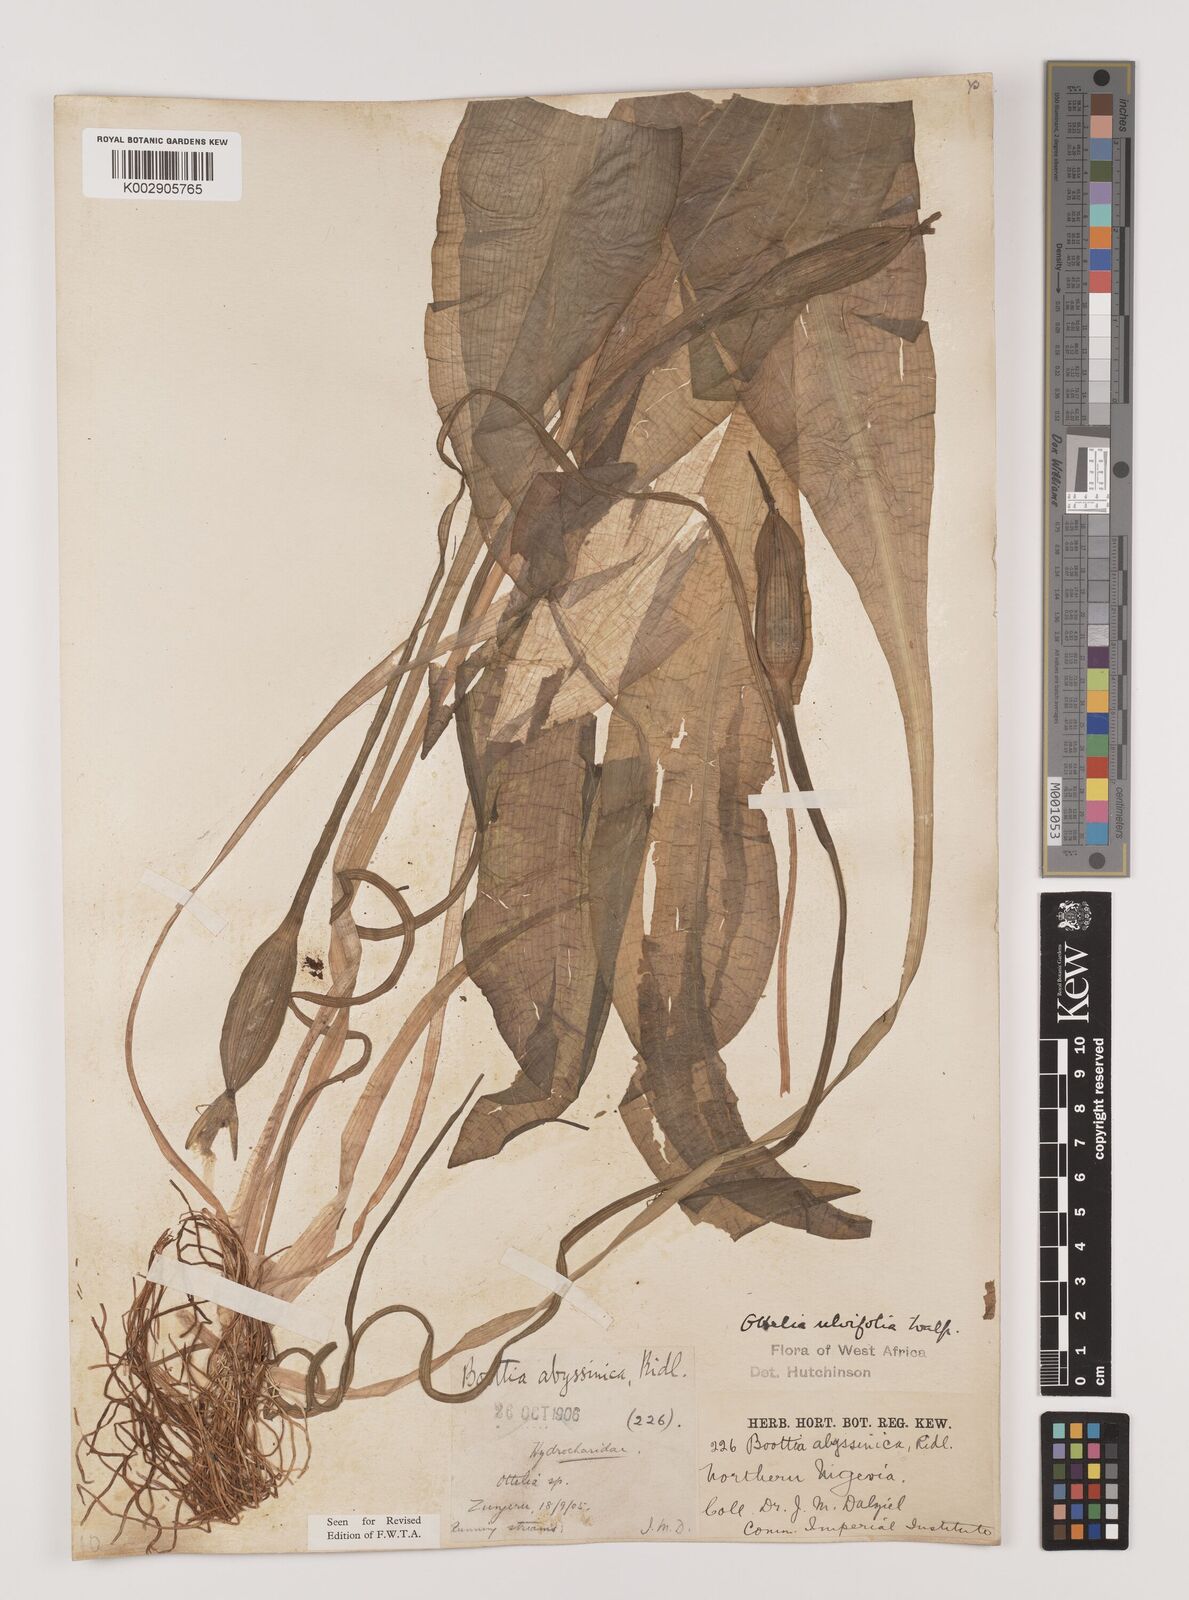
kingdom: Plantae
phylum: Tracheophyta
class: Liliopsida
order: Alismatales
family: Hydrocharitaceae
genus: Ottelia
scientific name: Ottelia ulvifolia
